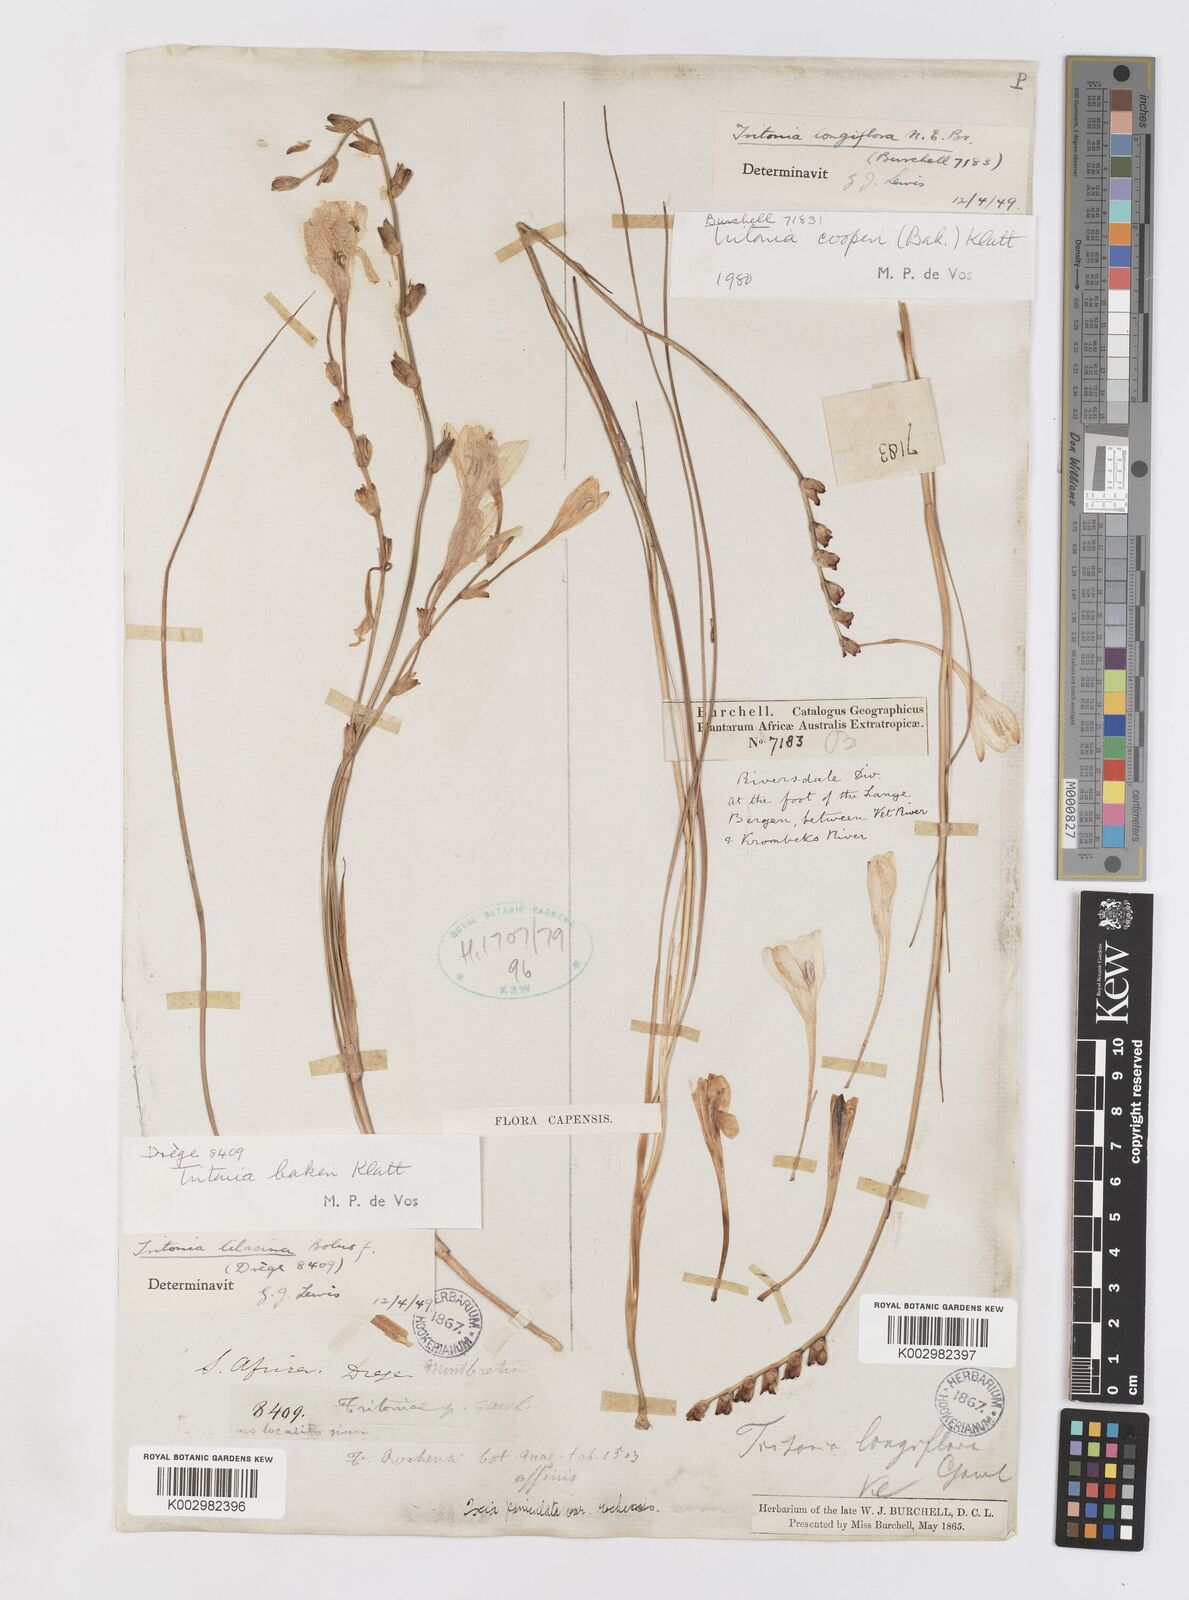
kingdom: Plantae
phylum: Tracheophyta
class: Liliopsida
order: Asparagales
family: Iridaceae
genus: Tritonia
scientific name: Tritonia cooperi
